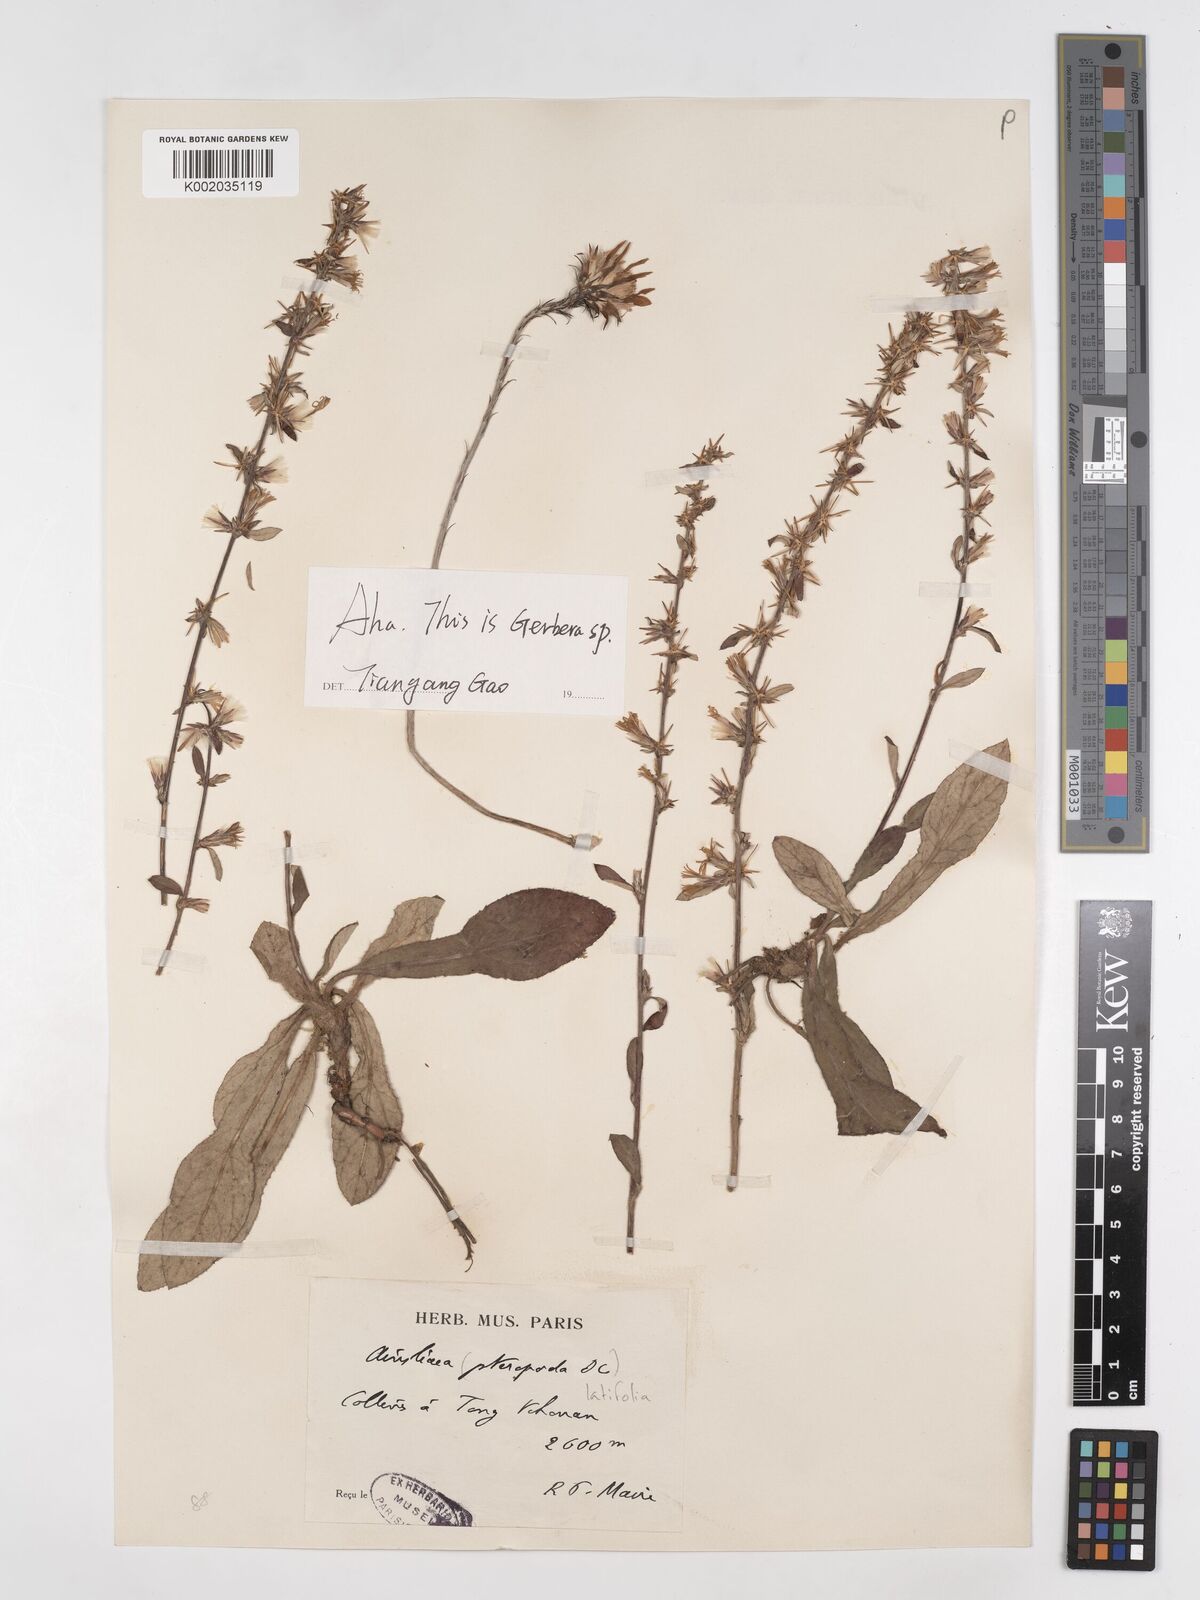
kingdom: Plantae
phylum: Tracheophyta
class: Magnoliopsida
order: Asterales
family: Asteraceae
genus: Ainsliaea
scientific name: Ainsliaea latifolia
